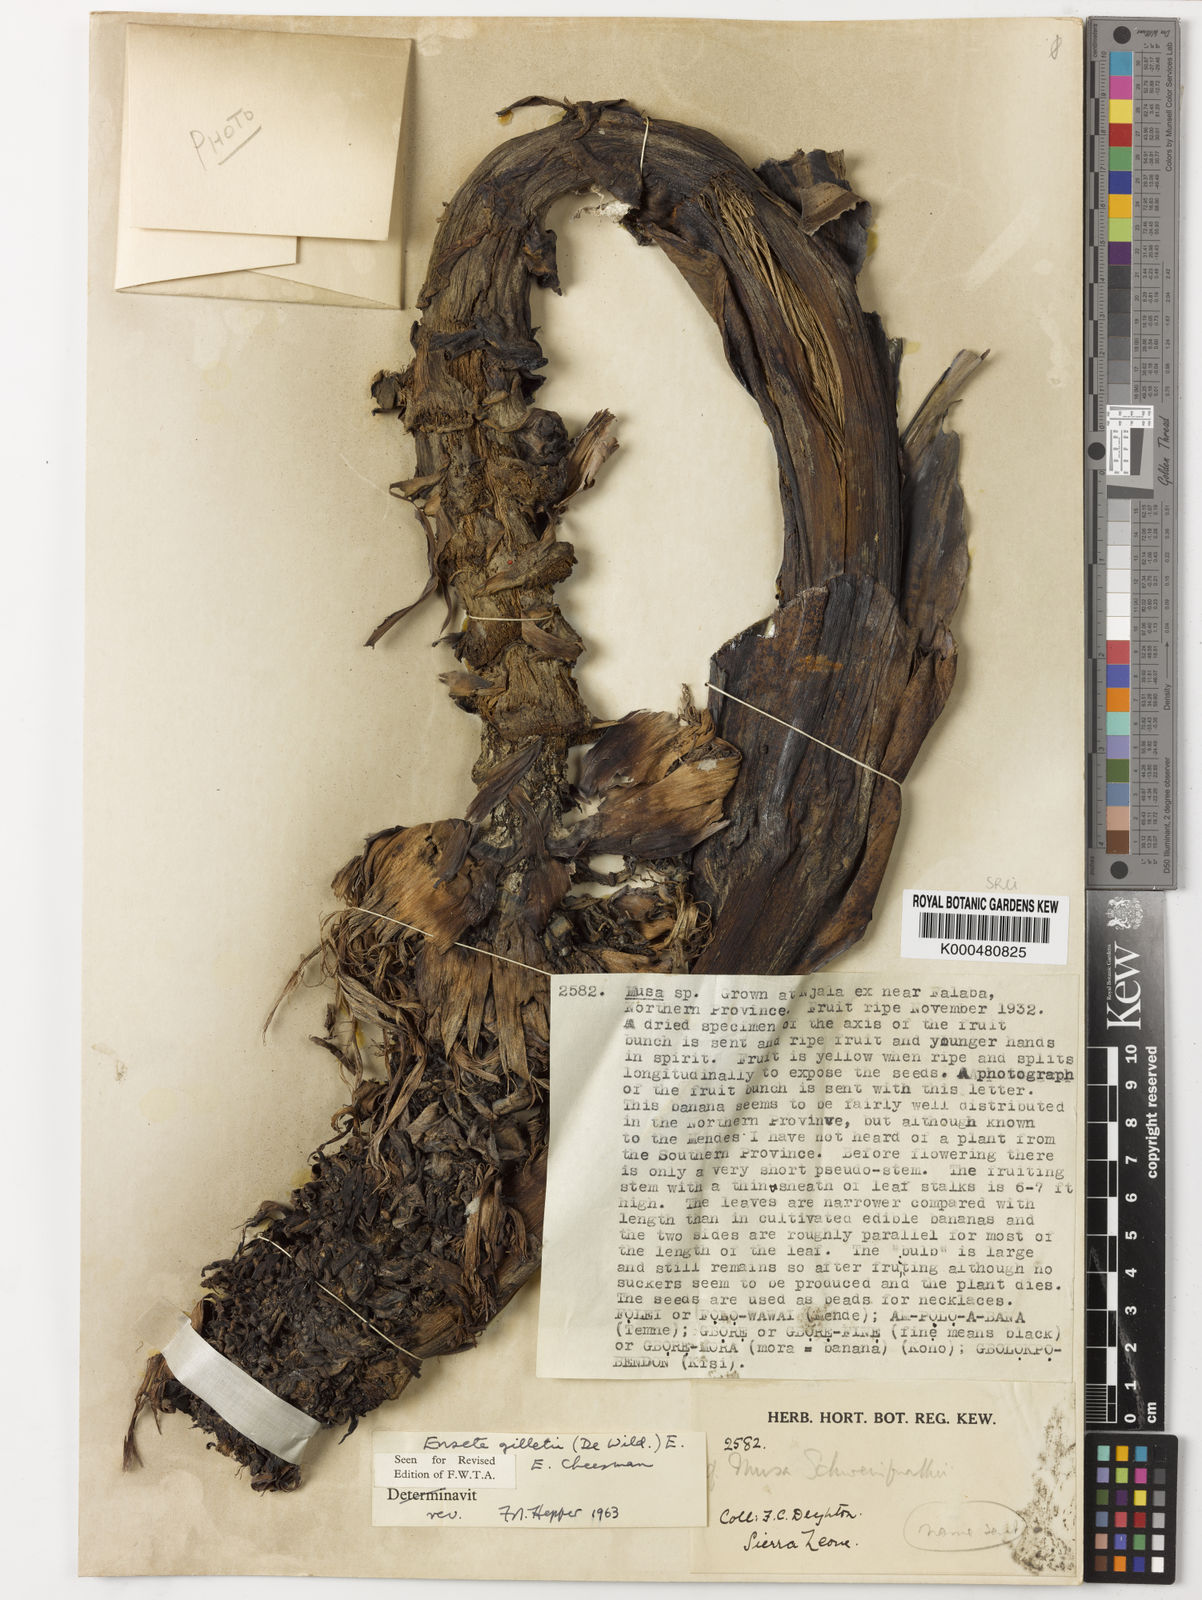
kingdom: Plantae
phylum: Tracheophyta
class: Liliopsida
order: Zingiberales
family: Musaceae
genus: Ensete
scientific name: Ensete livingstonianum
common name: Livingston's banana
